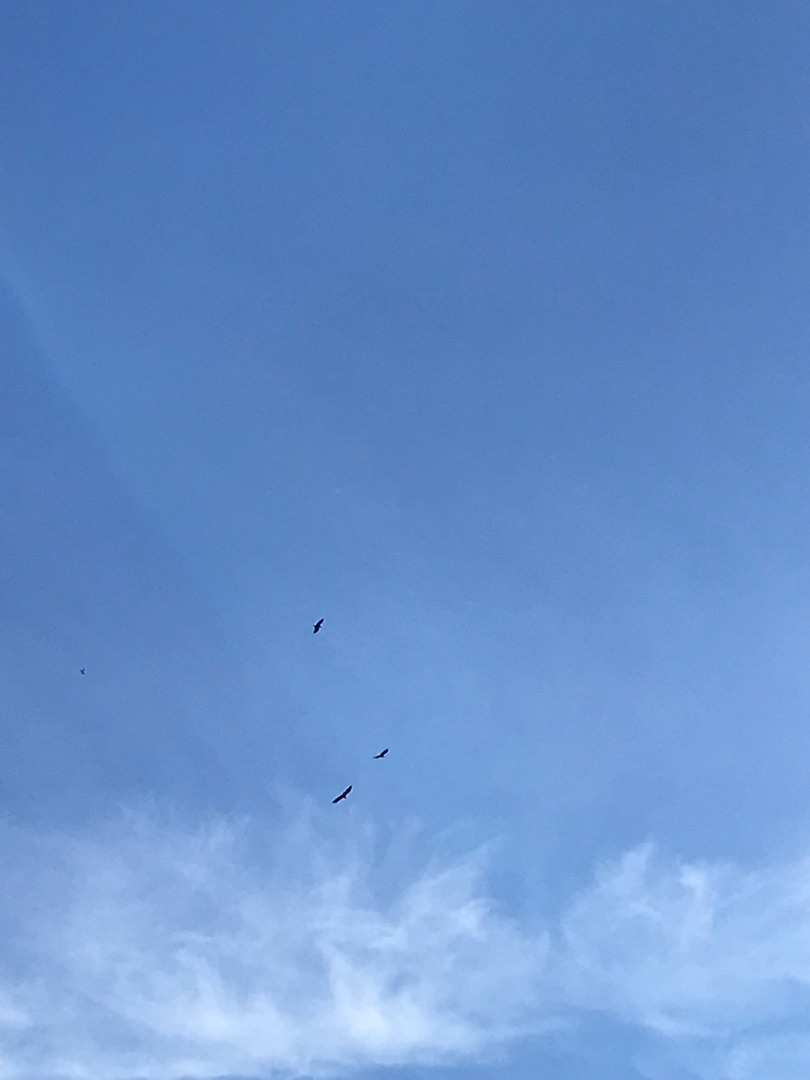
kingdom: Animalia
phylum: Chordata
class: Aves
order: Accipitriformes
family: Accipitridae
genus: Haliaeetus
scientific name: Haliaeetus albicilla
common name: Havørn
